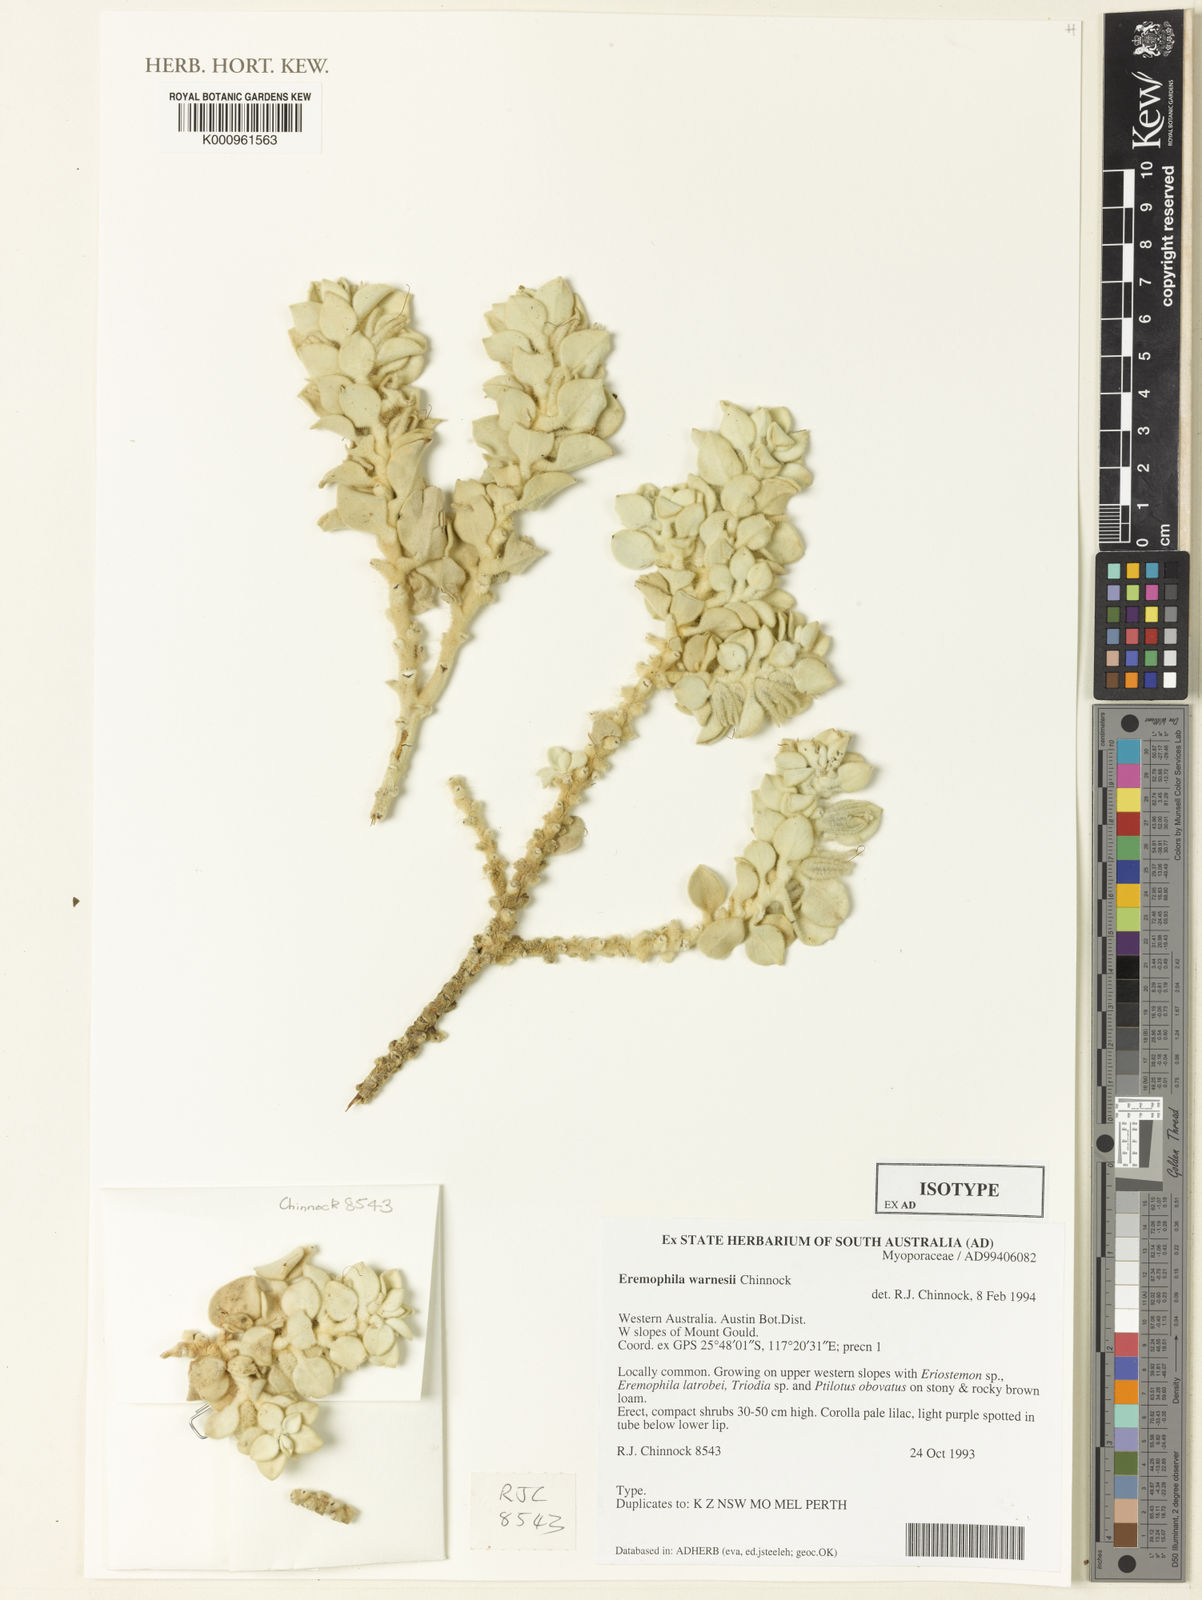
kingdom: Plantae
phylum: Tracheophyta
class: Magnoliopsida
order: Lamiales
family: Scrophulariaceae
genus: Eremophila
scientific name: Eremophila warnesii
